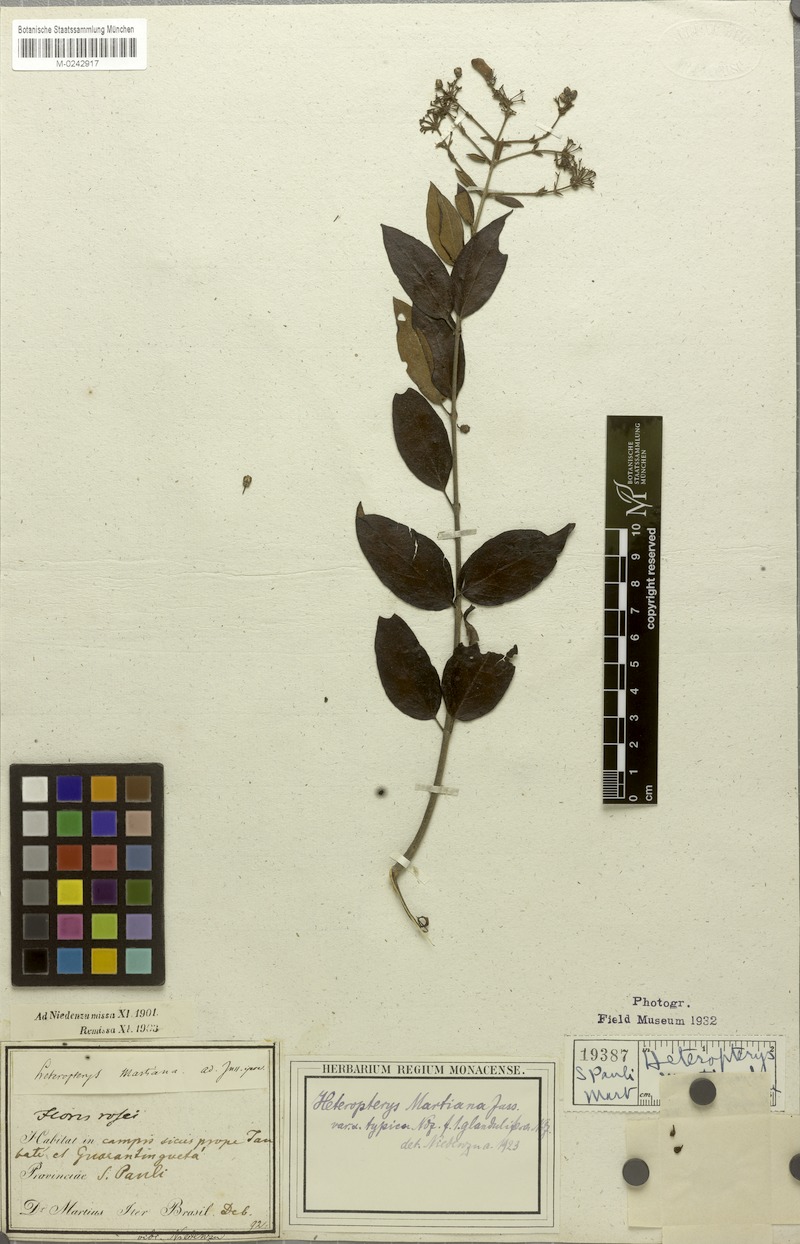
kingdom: Plantae
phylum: Tracheophyta
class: Magnoliopsida
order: Malpighiales
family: Malpighiaceae
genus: Heteropterys
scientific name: Heteropterys syringifolia
